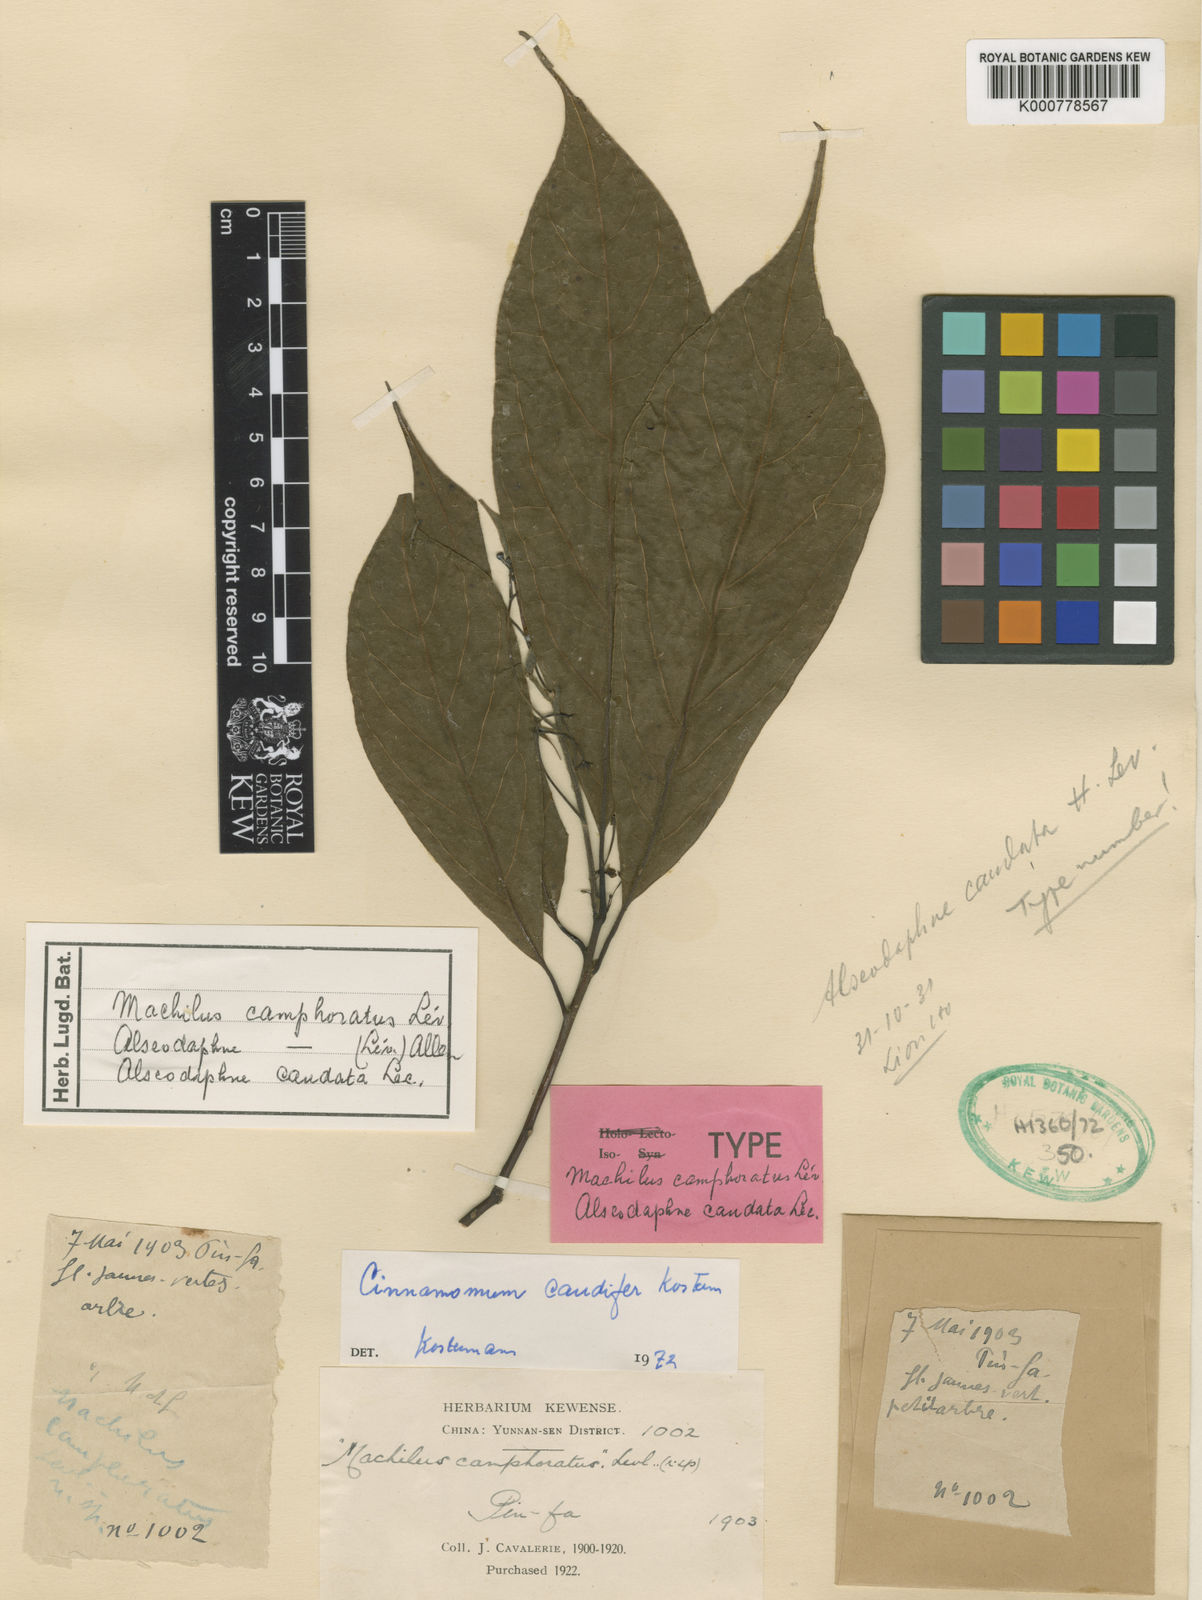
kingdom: Plantae
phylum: Tracheophyta
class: Magnoliopsida
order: Laurales
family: Lauraceae
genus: Cinnamomum
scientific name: Cinnamomum foveolatum
